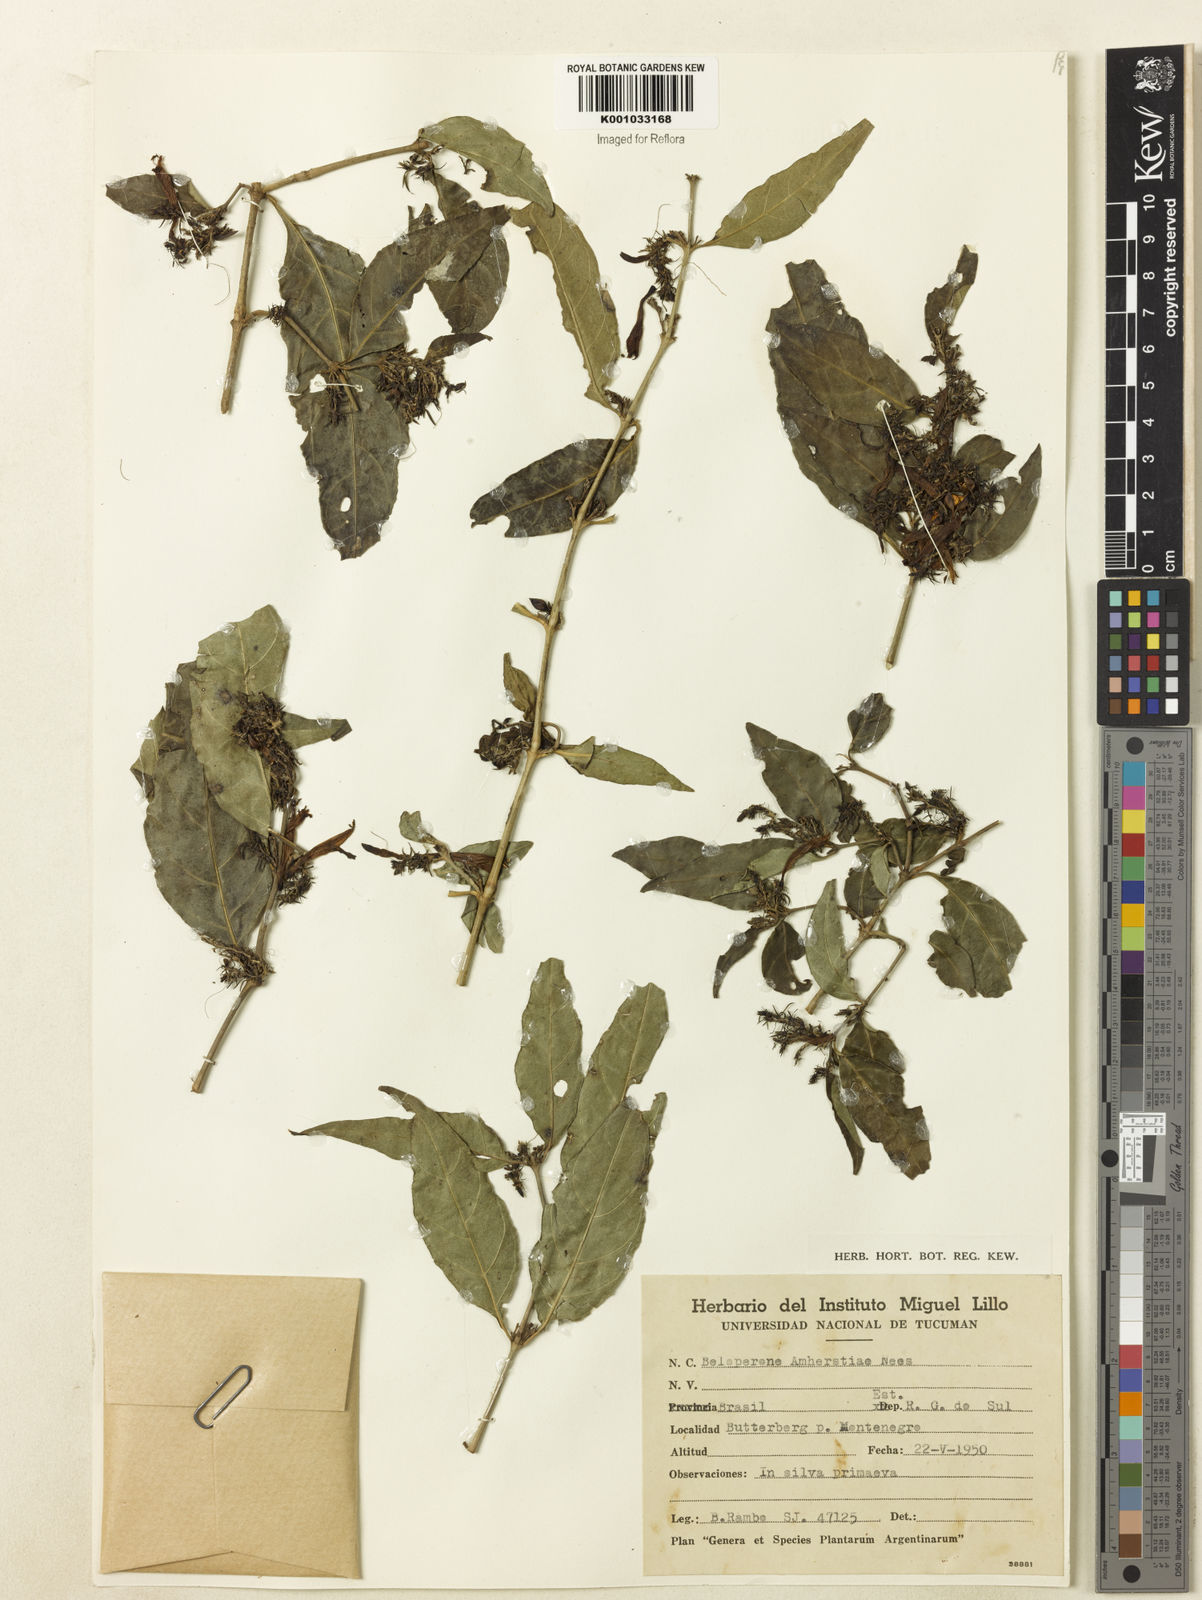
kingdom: Plantae
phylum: Tracheophyta
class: Magnoliopsida
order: Lamiales
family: Acanthaceae
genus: Justicia
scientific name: Justicia brasiliana
